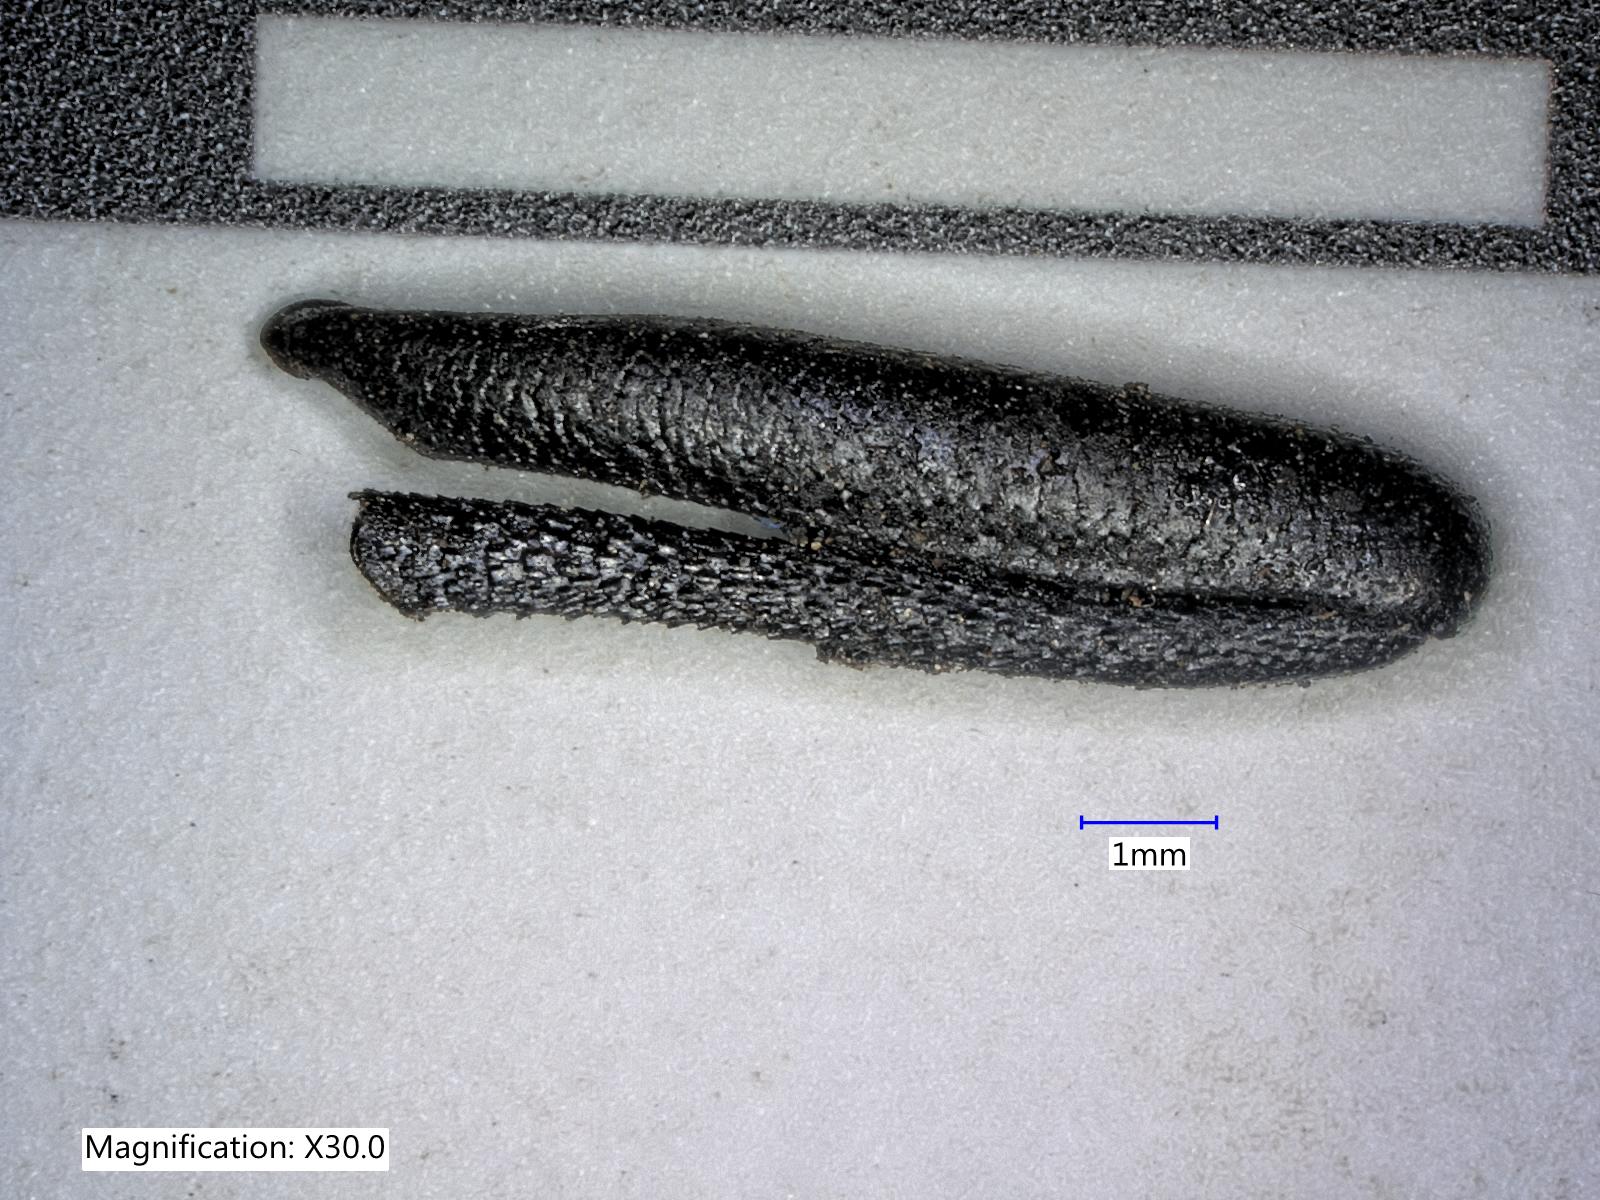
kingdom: Animalia
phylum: Arthropoda
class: Insecta
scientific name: Insecta
